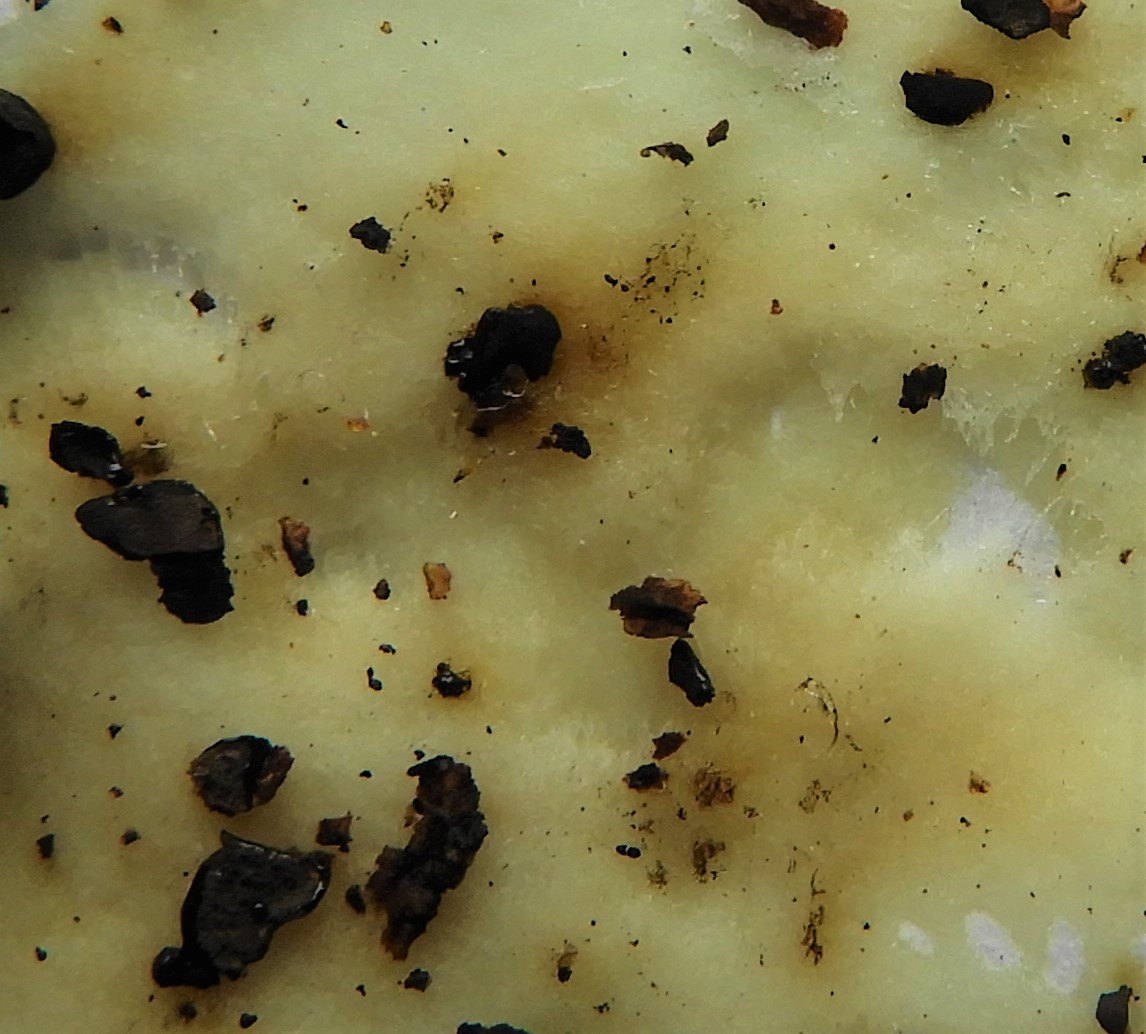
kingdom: Fungi
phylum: Ascomycota
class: Sordariomycetes
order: Xylariales
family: Hypoxylaceae
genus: Hypoxylon
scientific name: Hypoxylon fuscum
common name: kegleformet kulbær
